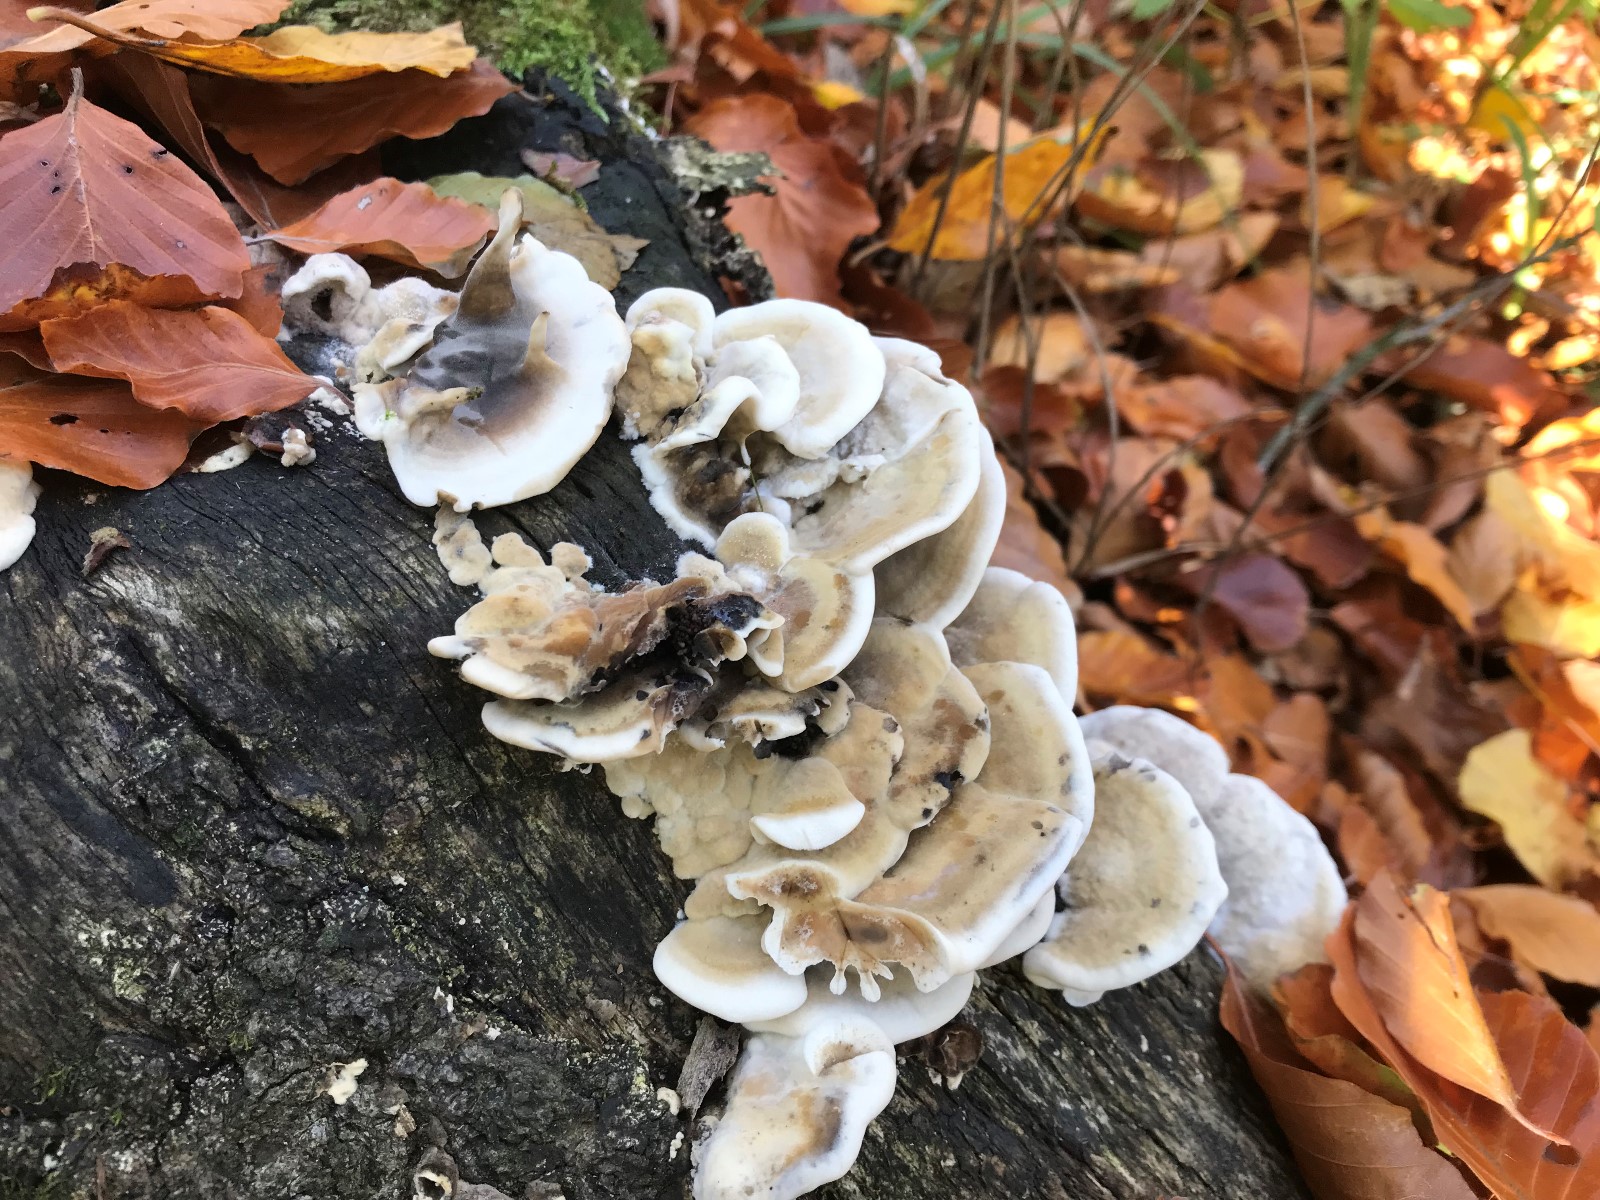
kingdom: Fungi
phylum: Basidiomycota
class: Agaricomycetes
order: Polyporales
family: Phanerochaetaceae
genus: Bjerkandera
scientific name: Bjerkandera adusta
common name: sveden sodporesvamp
